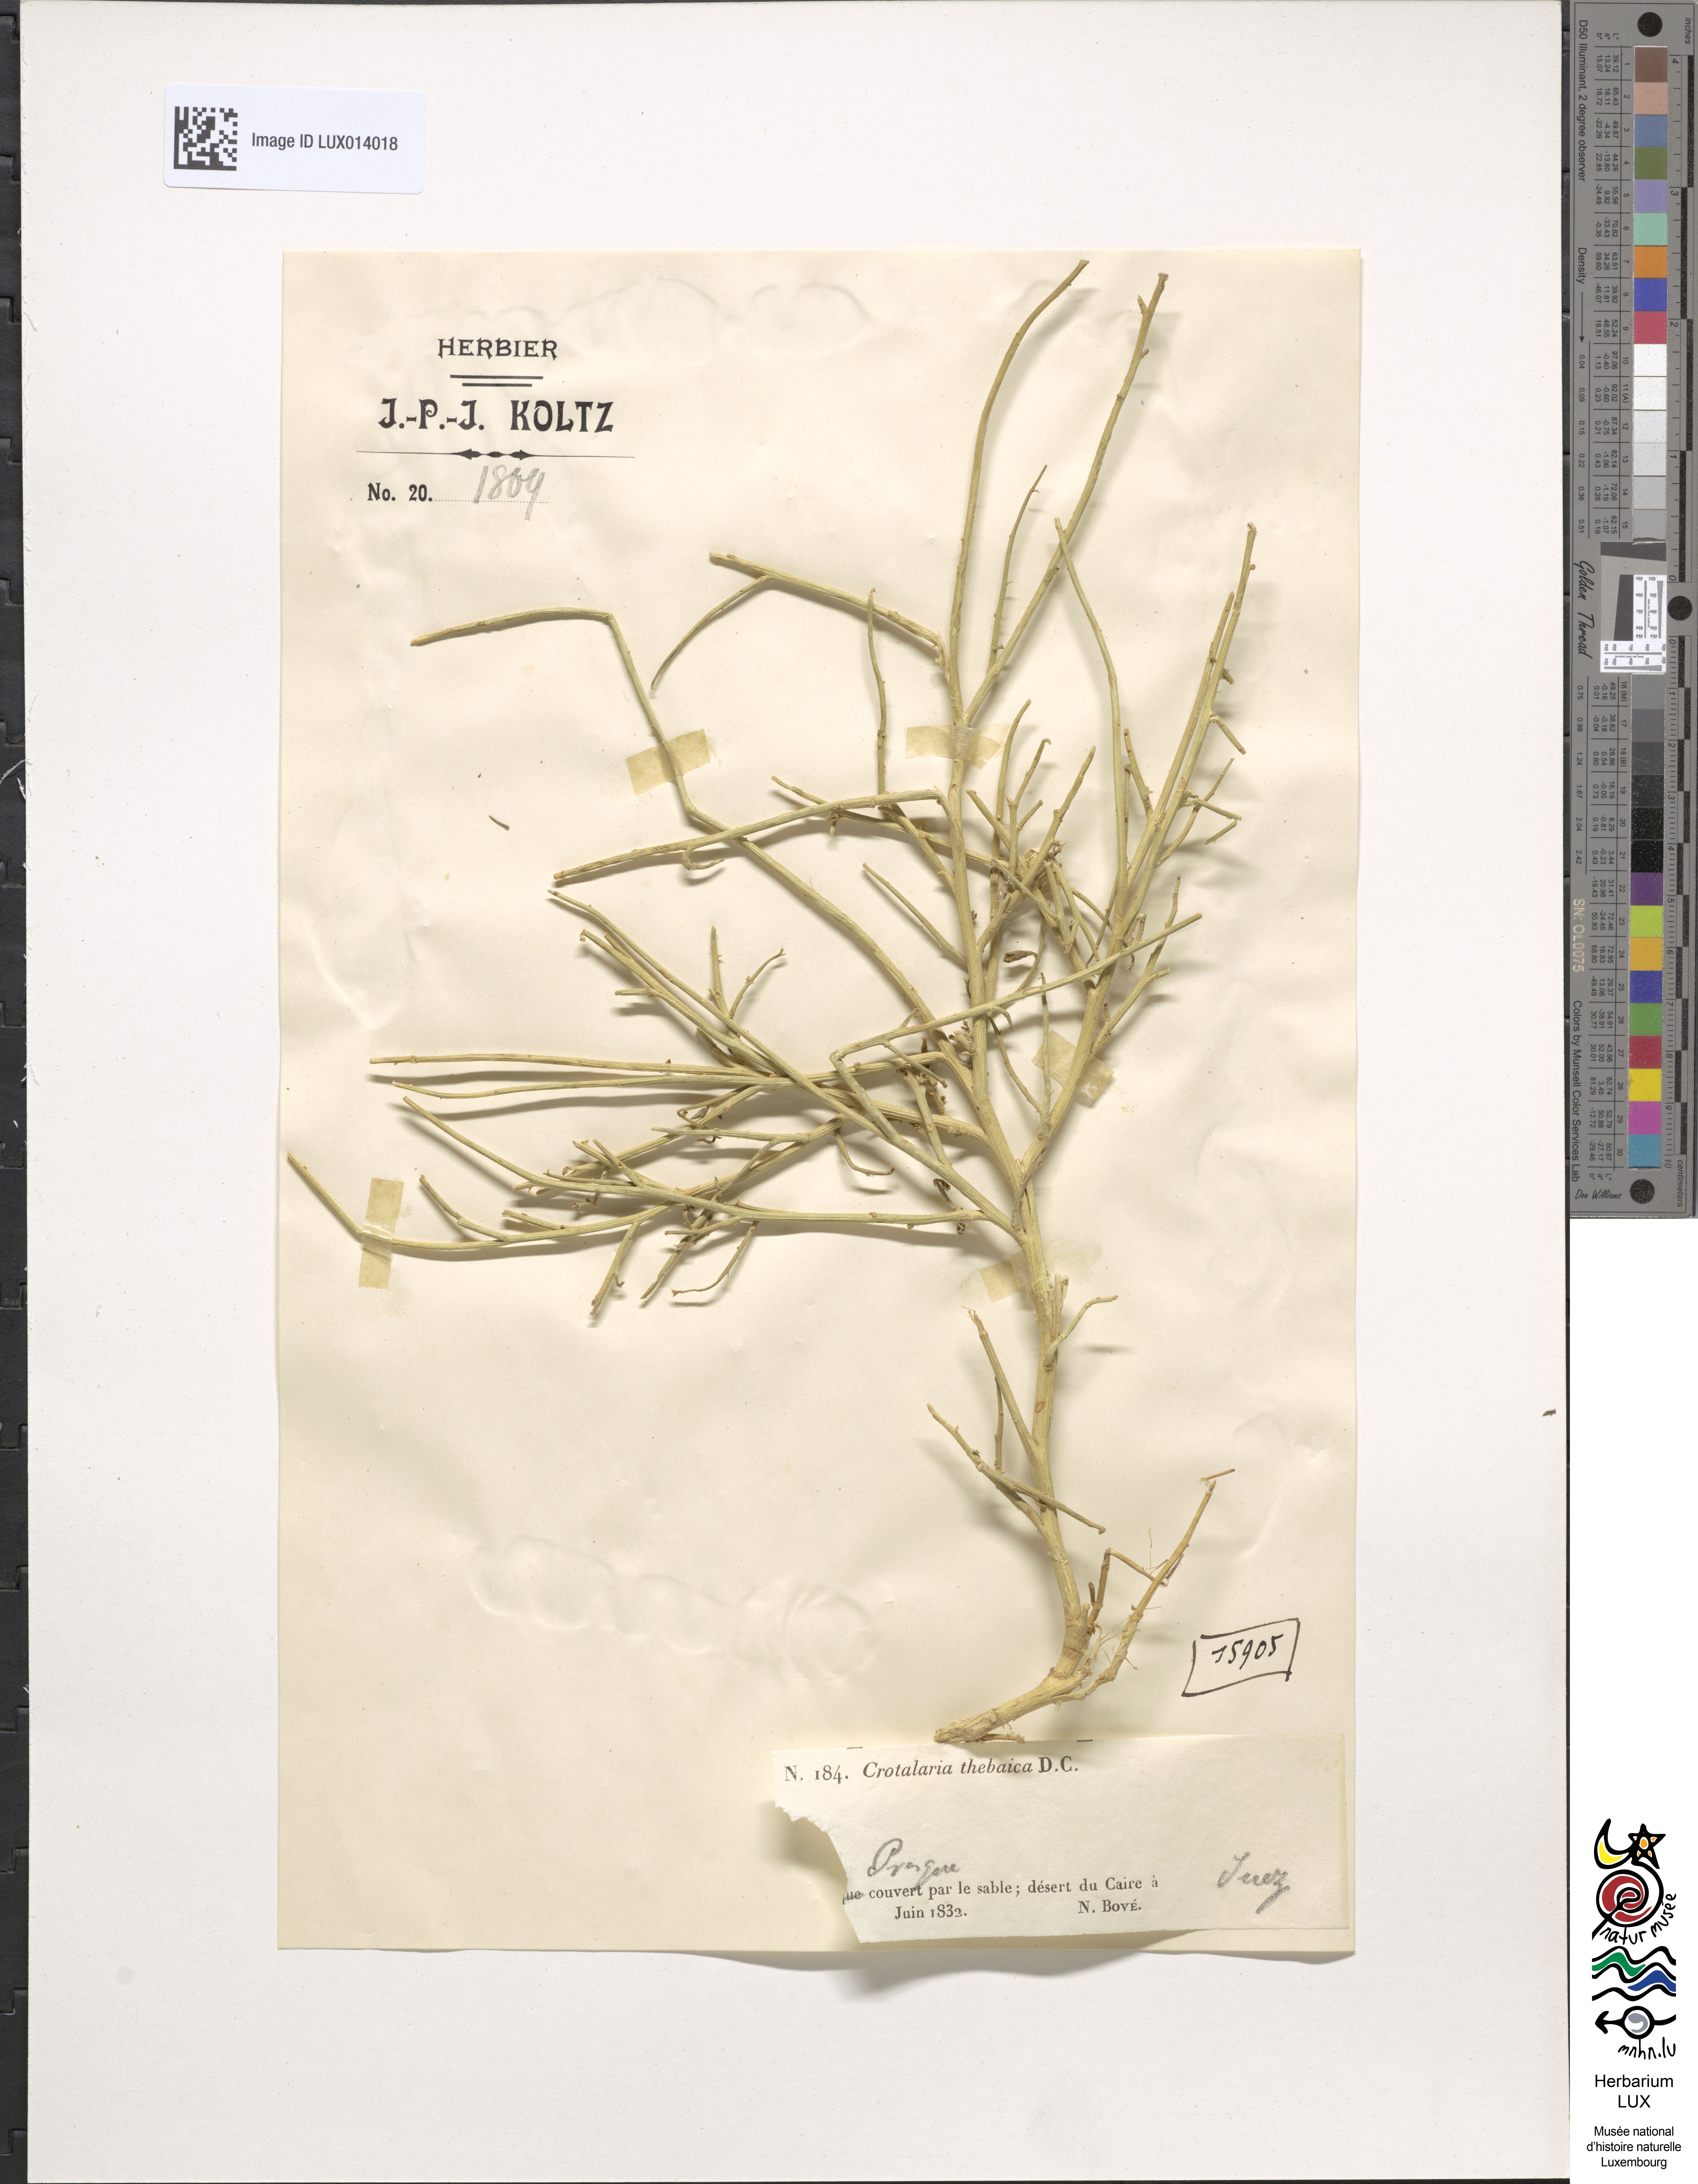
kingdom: Plantae
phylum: Tracheophyta
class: Magnoliopsida
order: Fabales
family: Fabaceae
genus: Crotalaria
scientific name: Crotalaria thebaica
